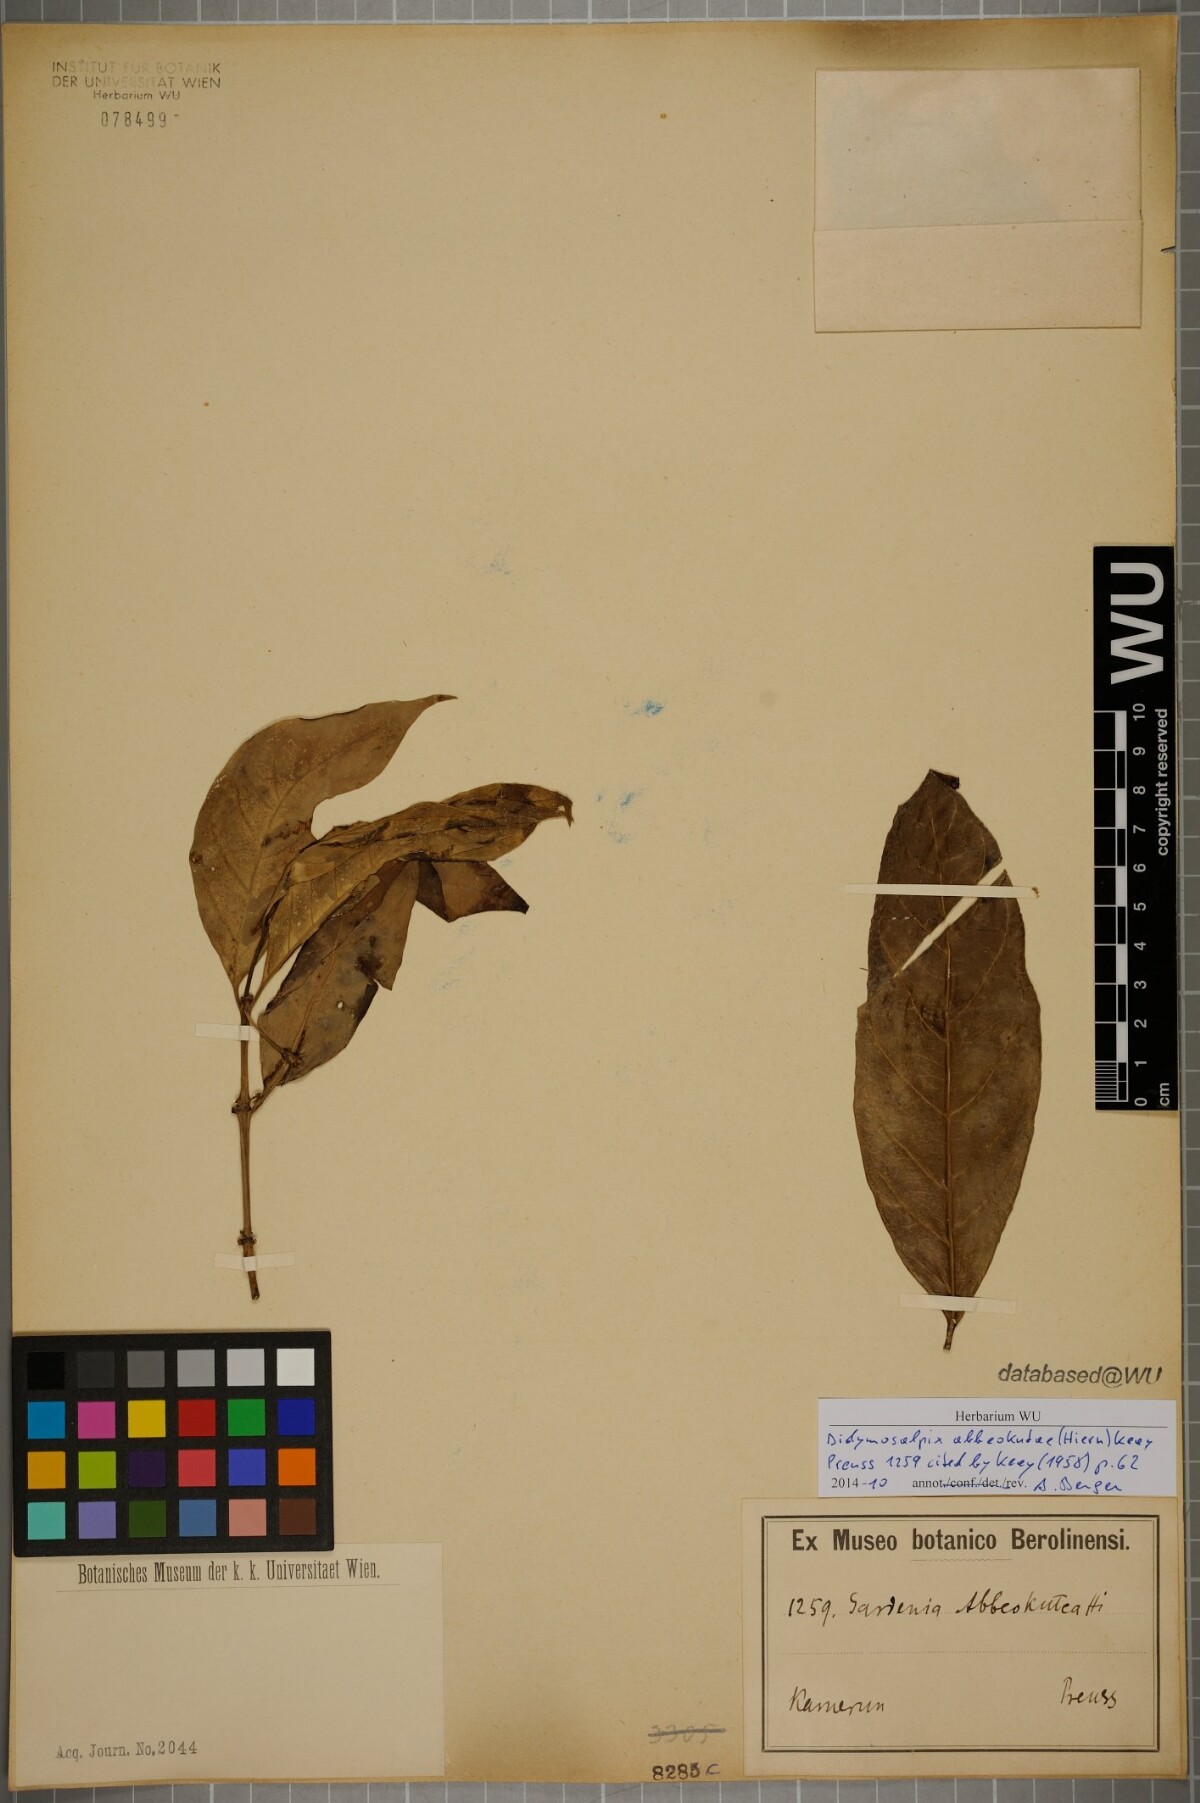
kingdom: Plantae
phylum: Tracheophyta
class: Magnoliopsida
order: Gentianales
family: Rubiaceae
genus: Didymosalpinx
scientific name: Didymosalpinx abbeokutae
